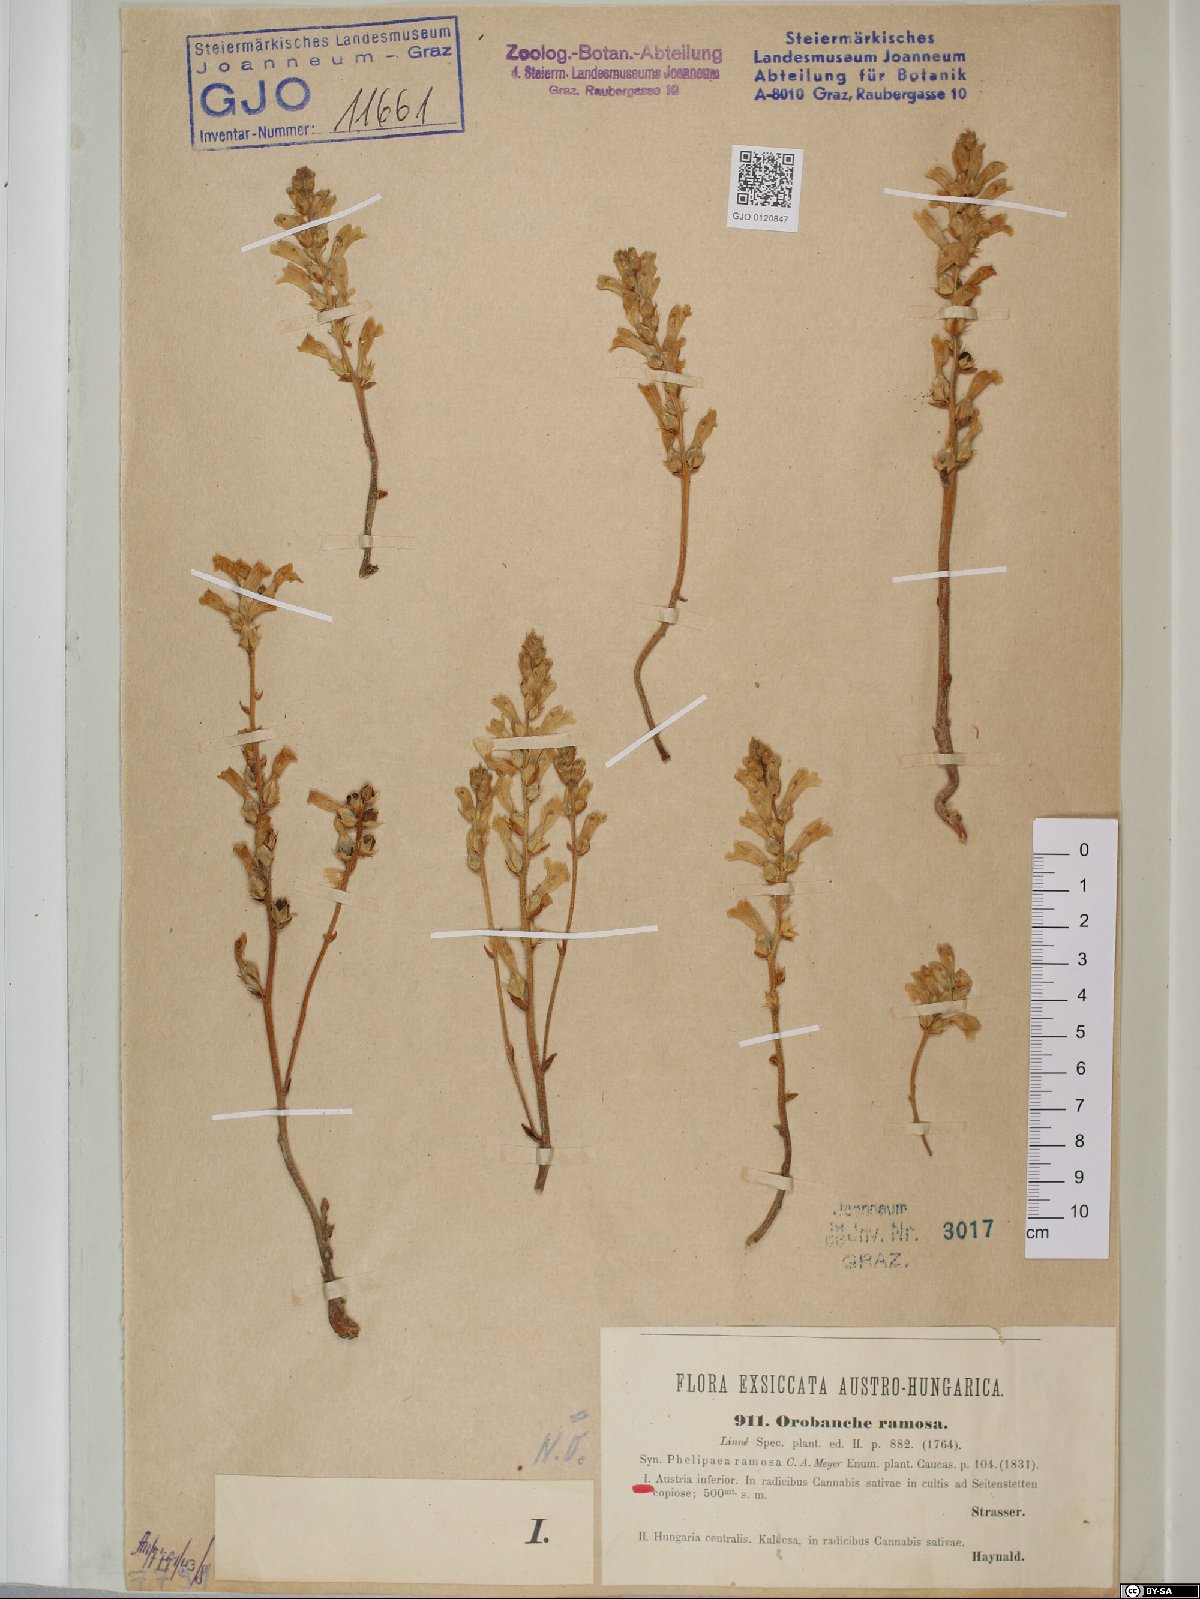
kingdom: Plantae
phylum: Tracheophyta
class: Magnoliopsida
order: Lamiales
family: Orobanchaceae
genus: Phelipanche
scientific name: Phelipanche ramosa
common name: Branched broomrape
